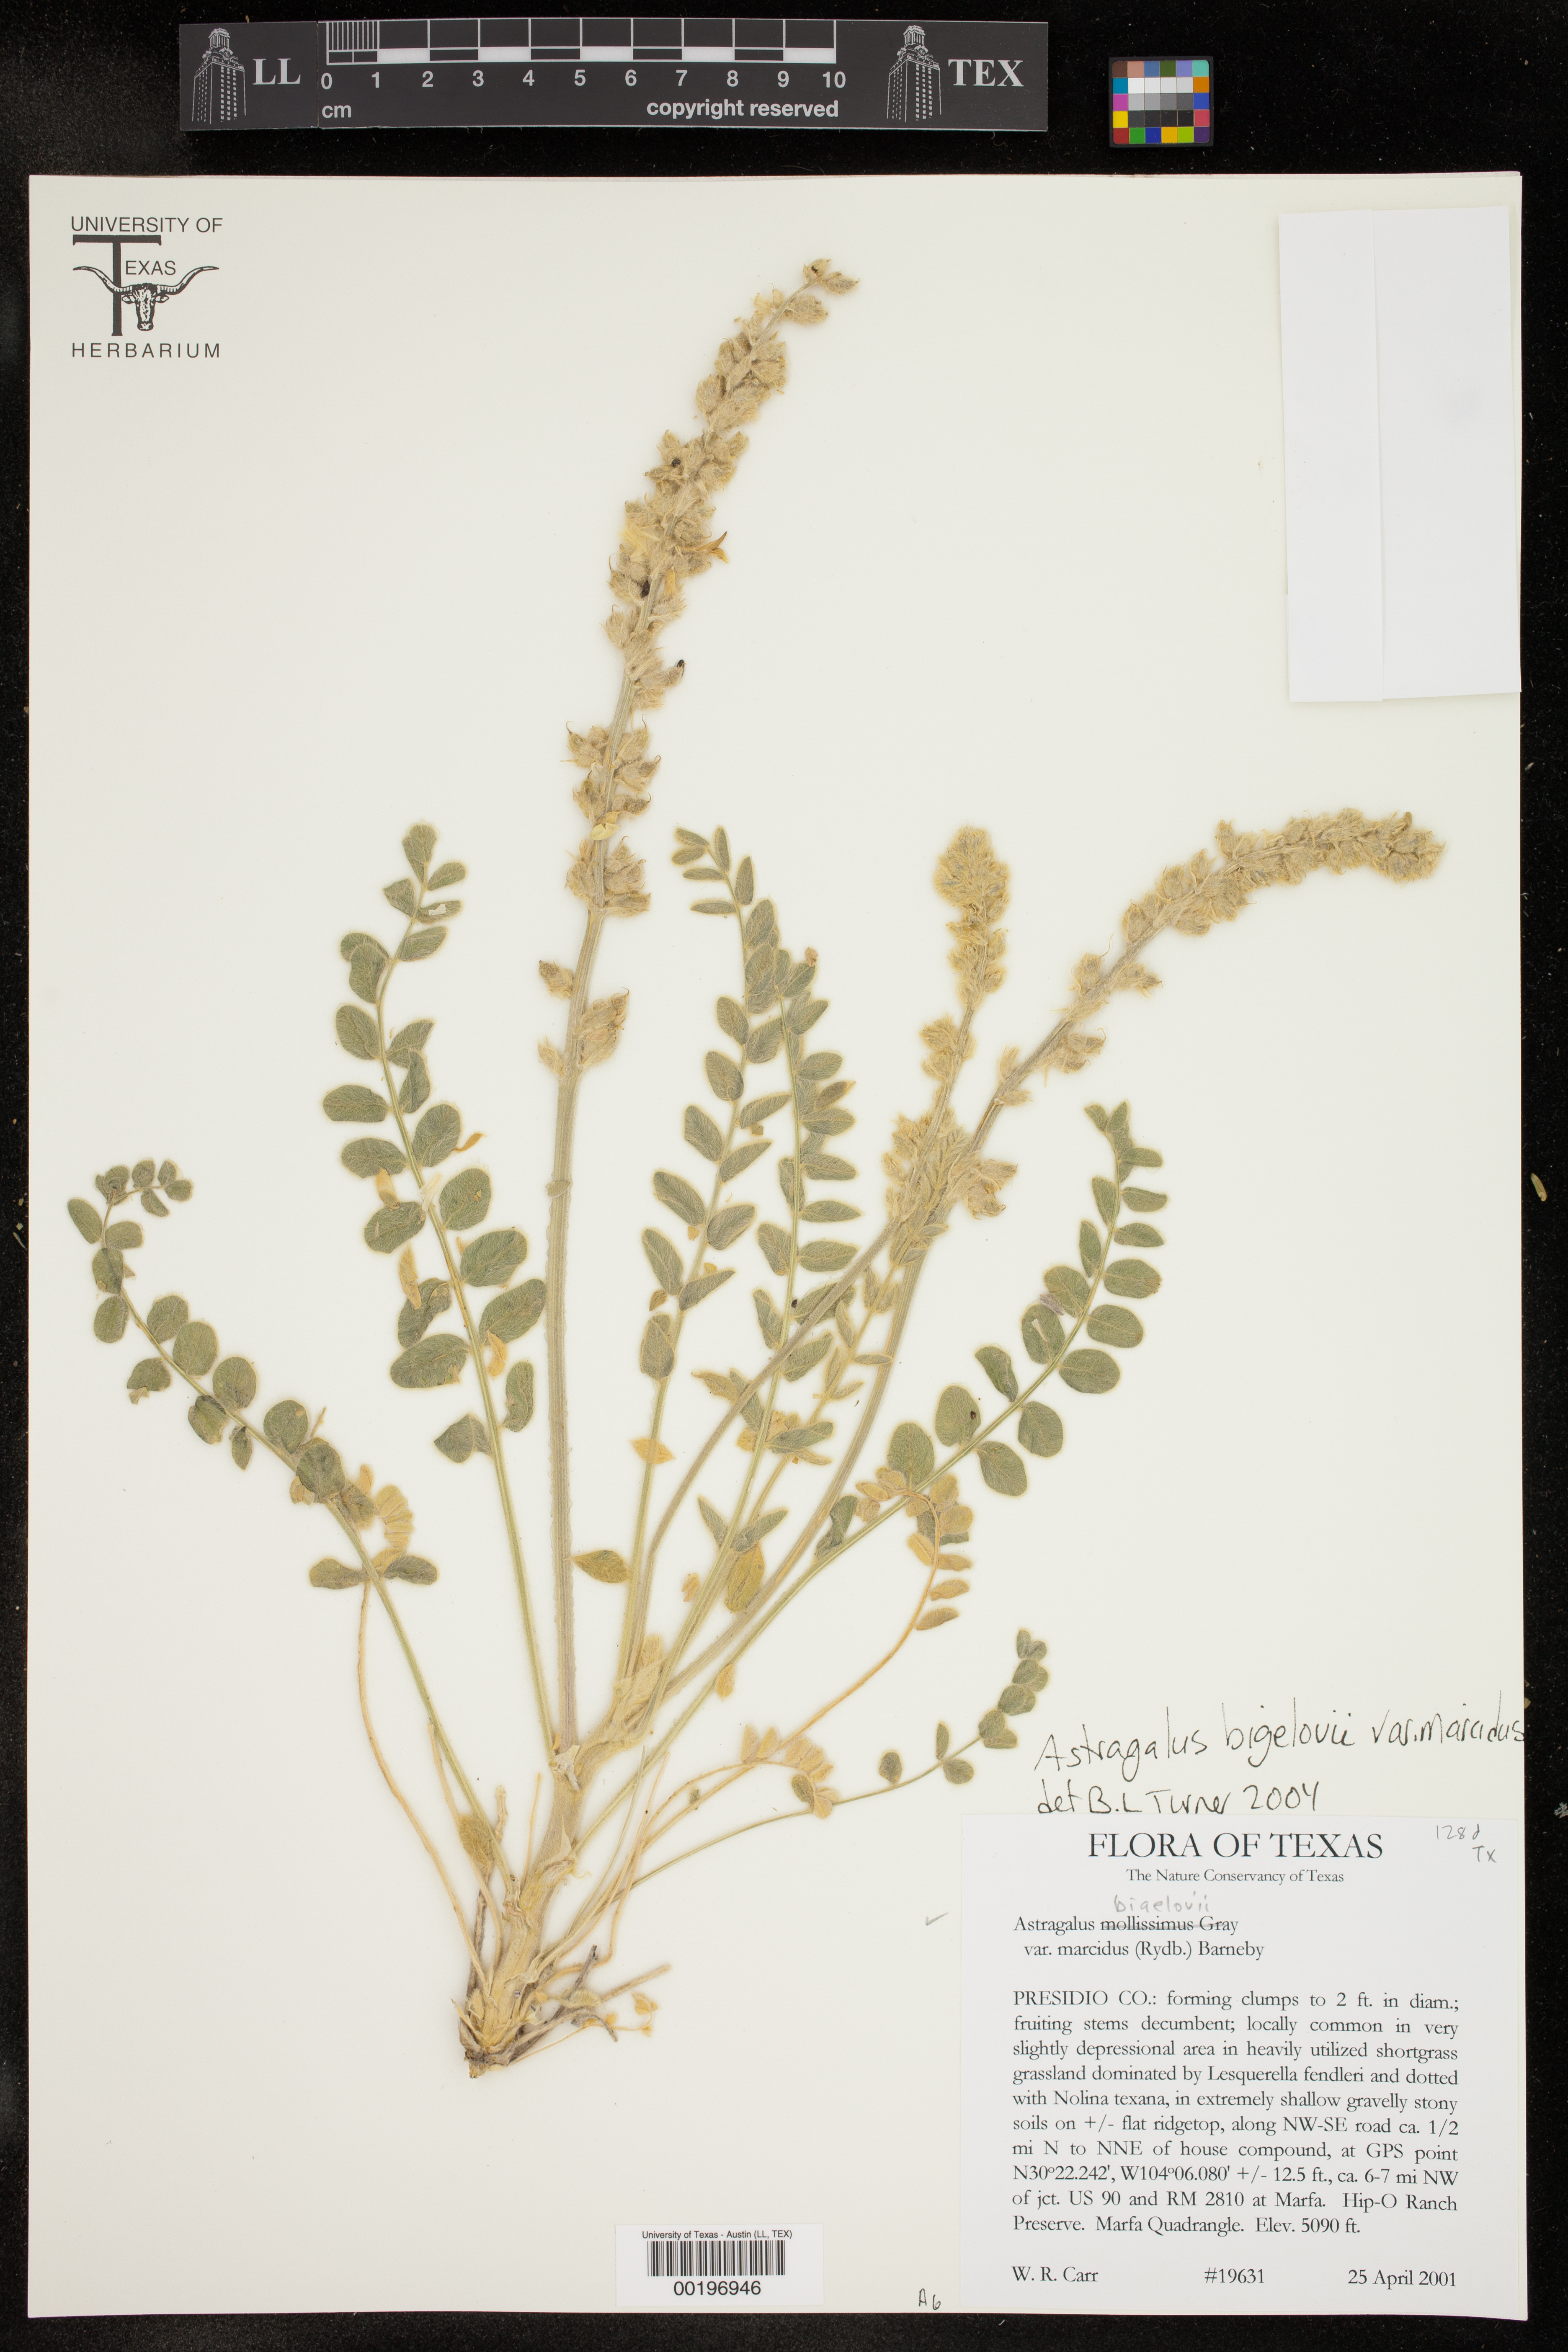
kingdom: Plantae
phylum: Tracheophyta
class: Magnoliopsida
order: Fabales
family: Fabaceae
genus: Astragalus
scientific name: Astragalus mollissimus
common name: Woolly locoweed
